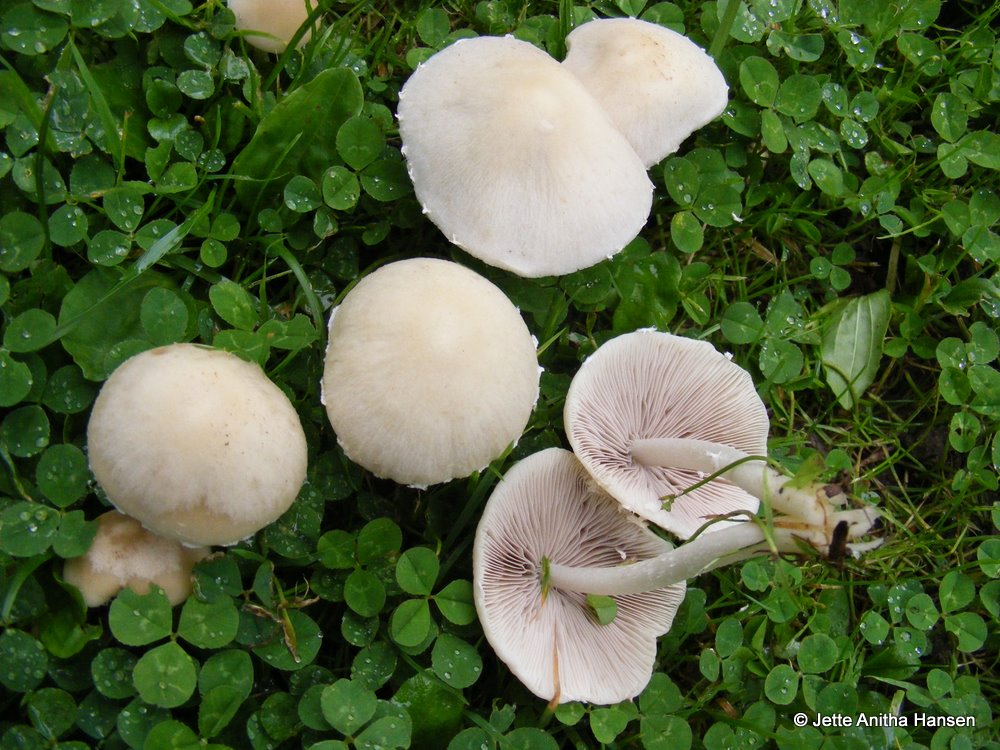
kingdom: Fungi
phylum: Basidiomycota
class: Agaricomycetes
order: Agaricales
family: Psathyrellaceae
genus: Candolleomyces
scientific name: Candolleomyces candolleanus
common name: Candolles mørkhat
